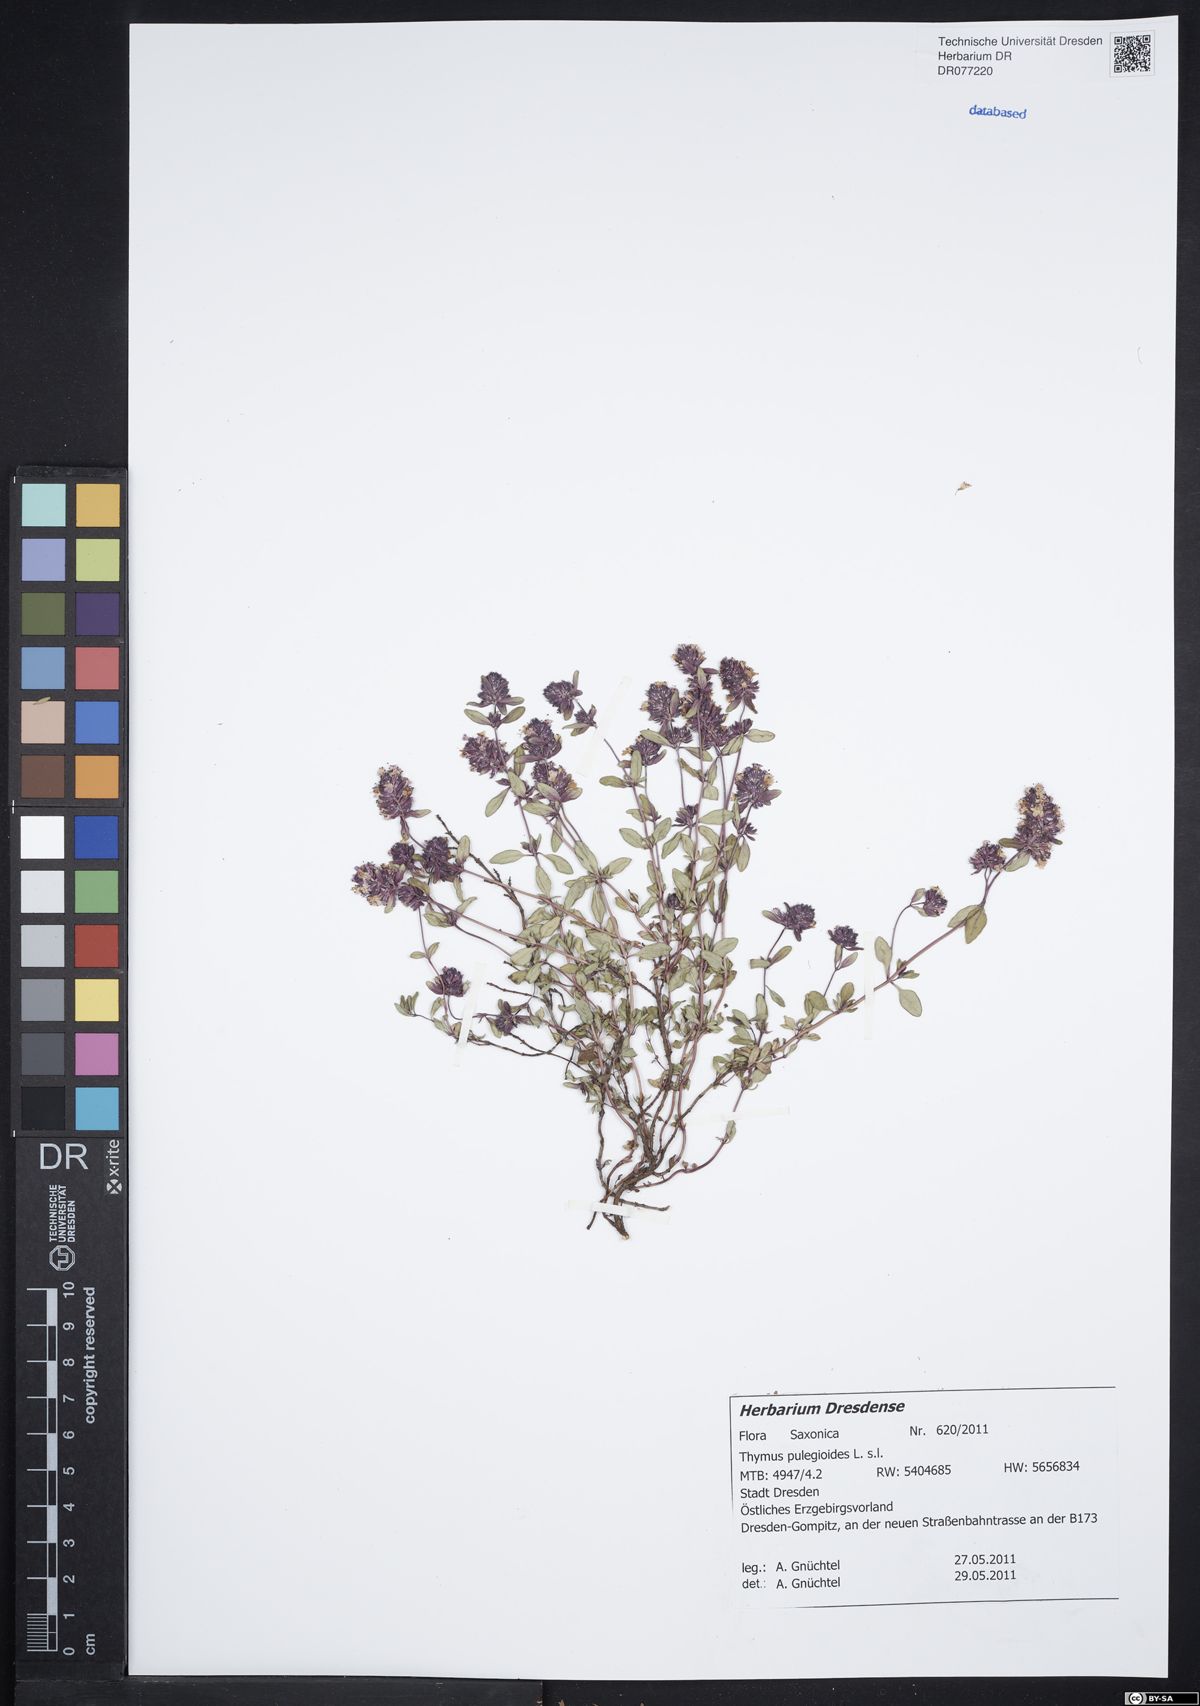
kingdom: Plantae
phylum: Tracheophyta
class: Magnoliopsida
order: Lamiales
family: Lamiaceae
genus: Thymus
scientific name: Thymus pulegioides
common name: Large thyme
